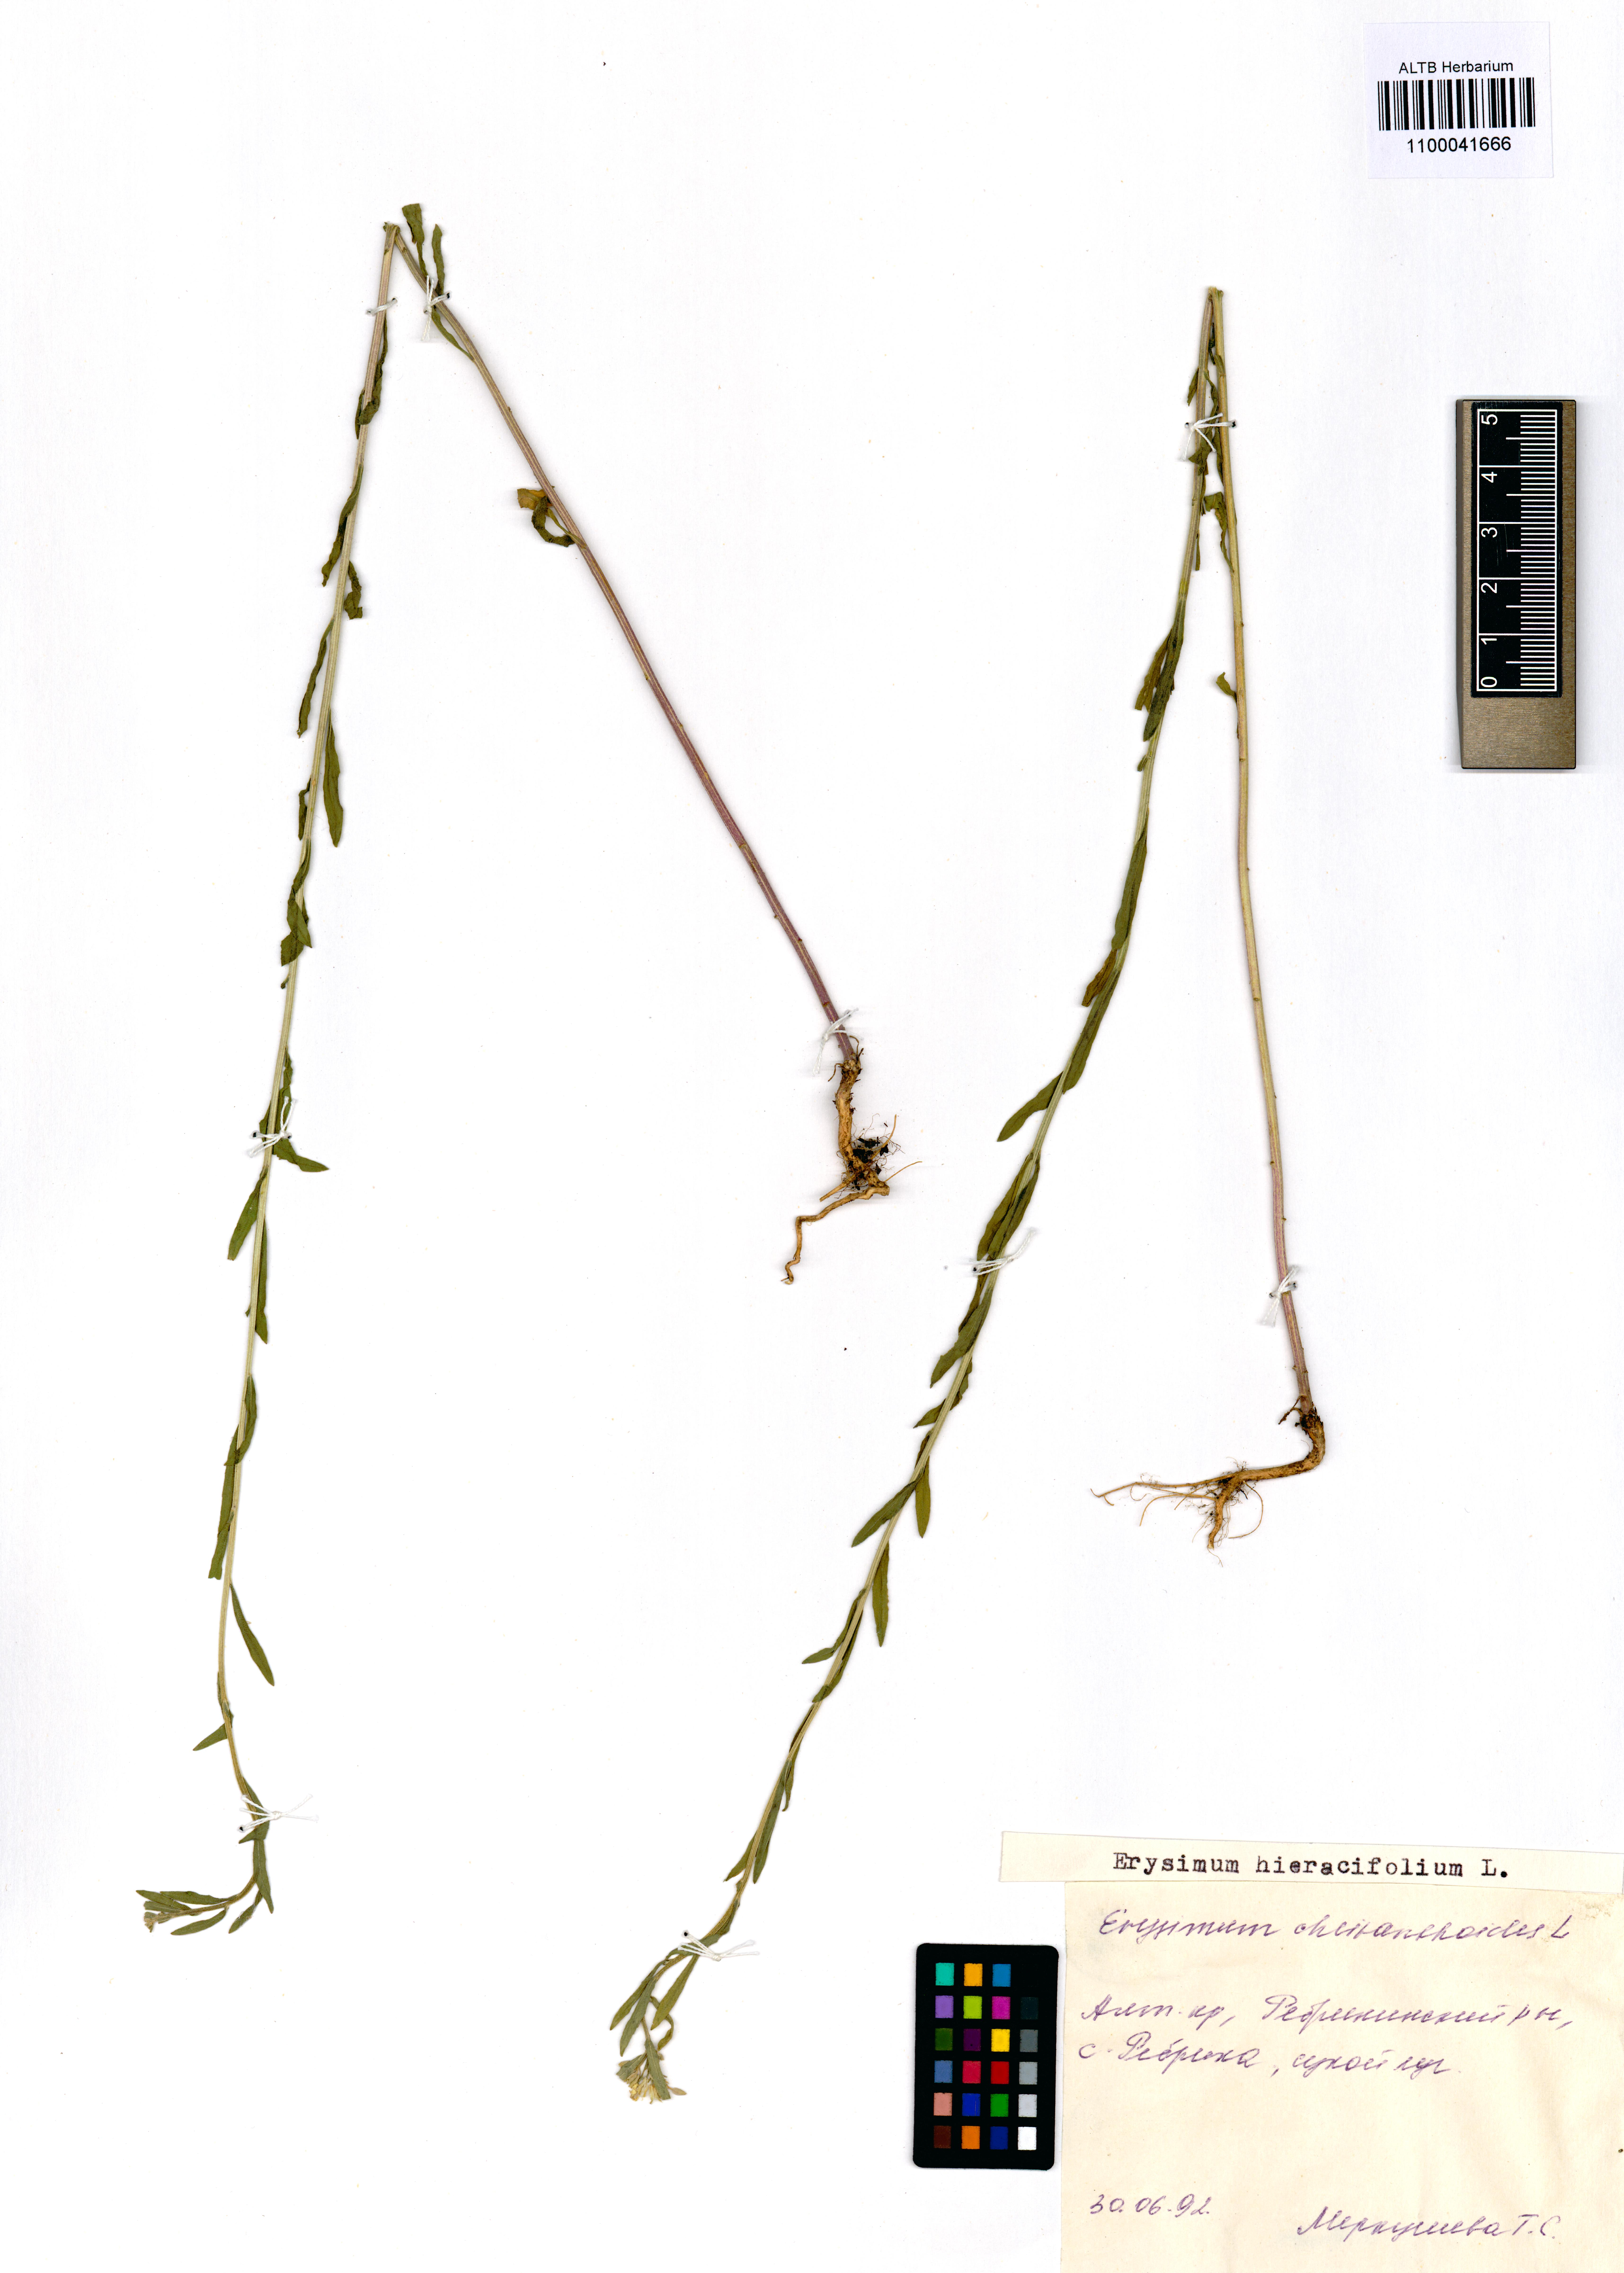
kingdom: Plantae
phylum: Tracheophyta
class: Magnoliopsida
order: Brassicales
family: Brassicaceae
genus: Erysimum
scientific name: Erysimum hieraciifolium
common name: European wallflower
